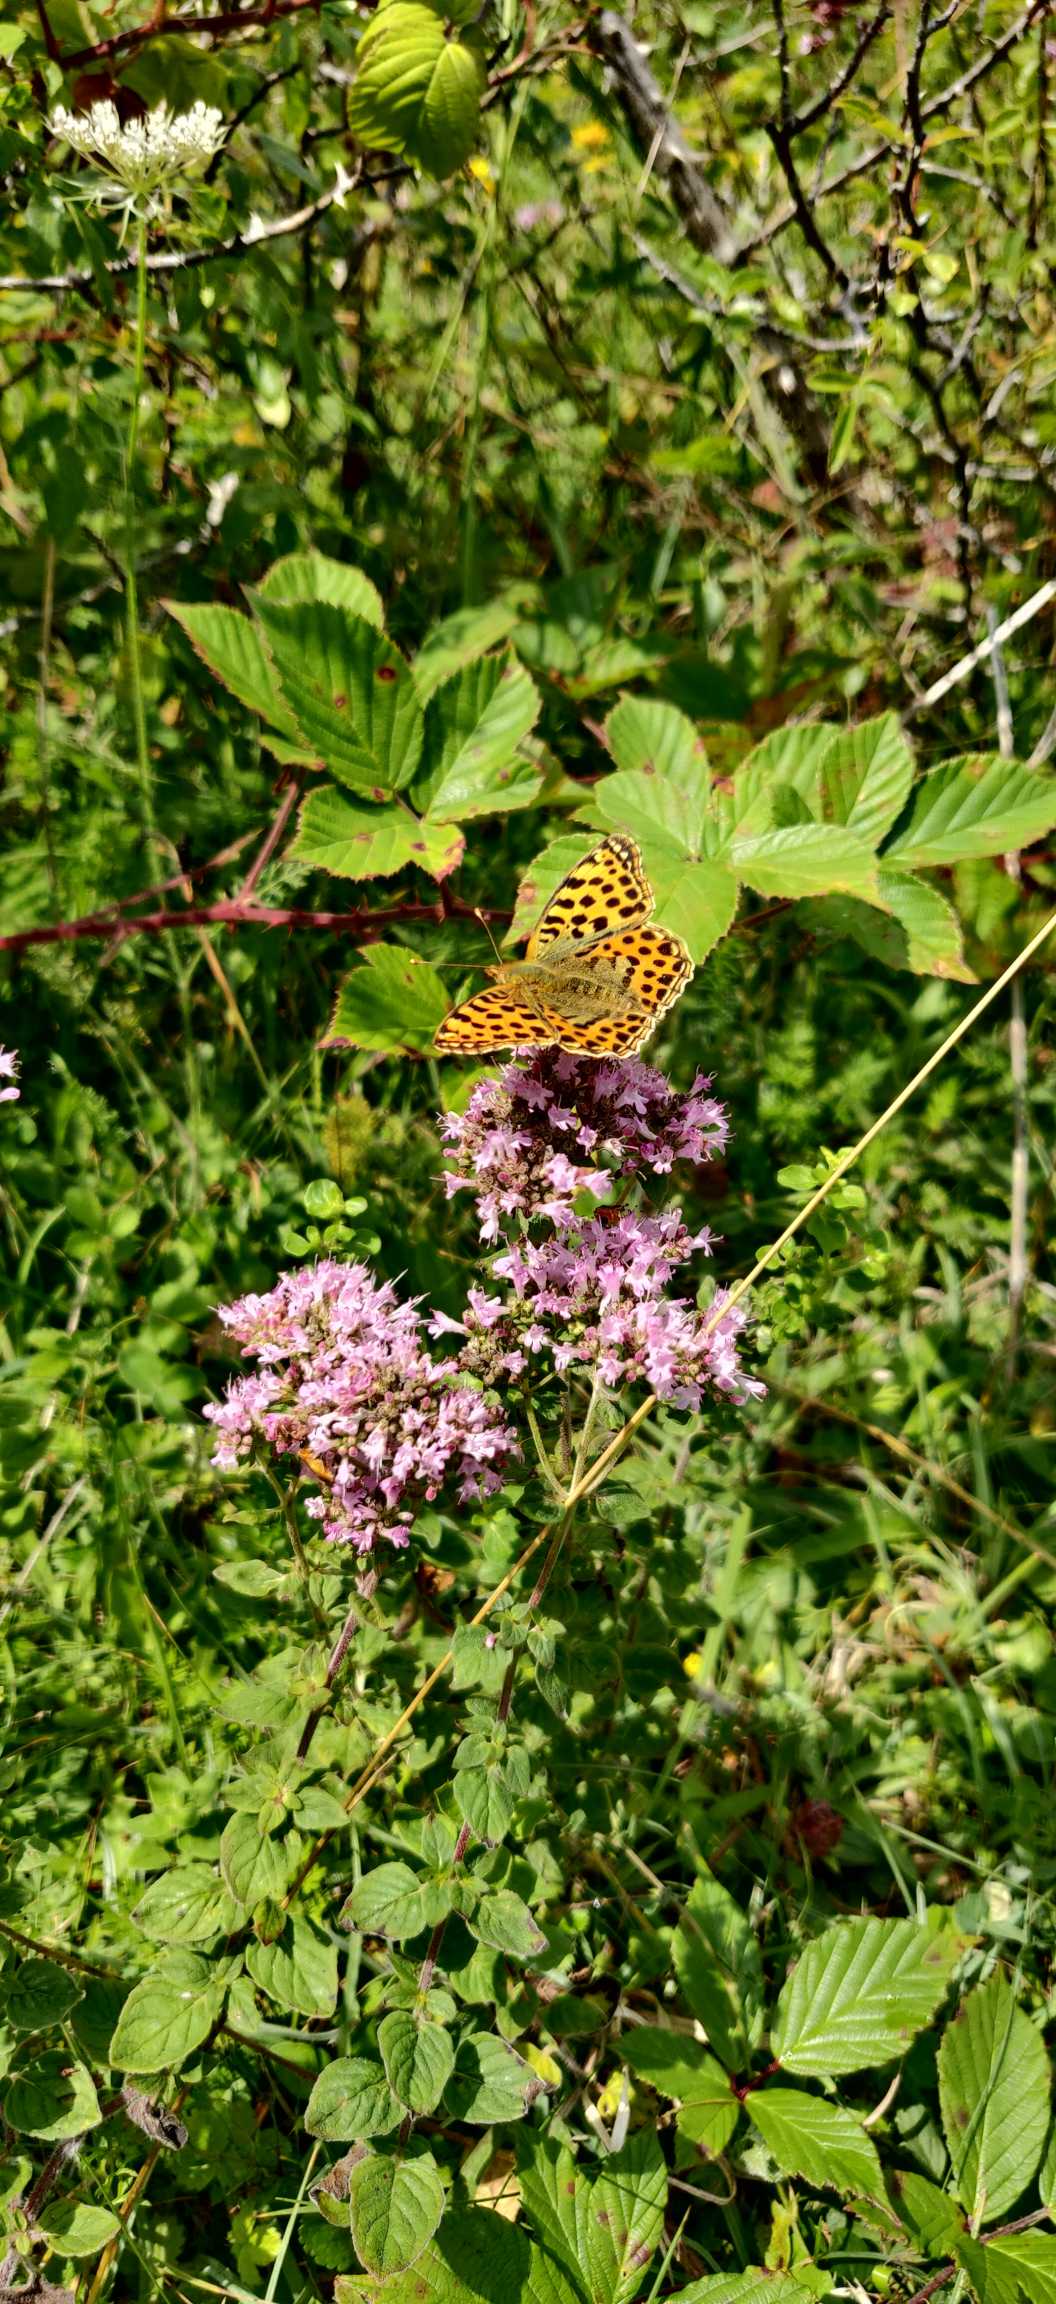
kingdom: Animalia
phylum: Arthropoda
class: Insecta
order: Lepidoptera
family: Nymphalidae
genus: Issoria
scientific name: Issoria lathonia
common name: Storplettet perlemorsommerfugl
